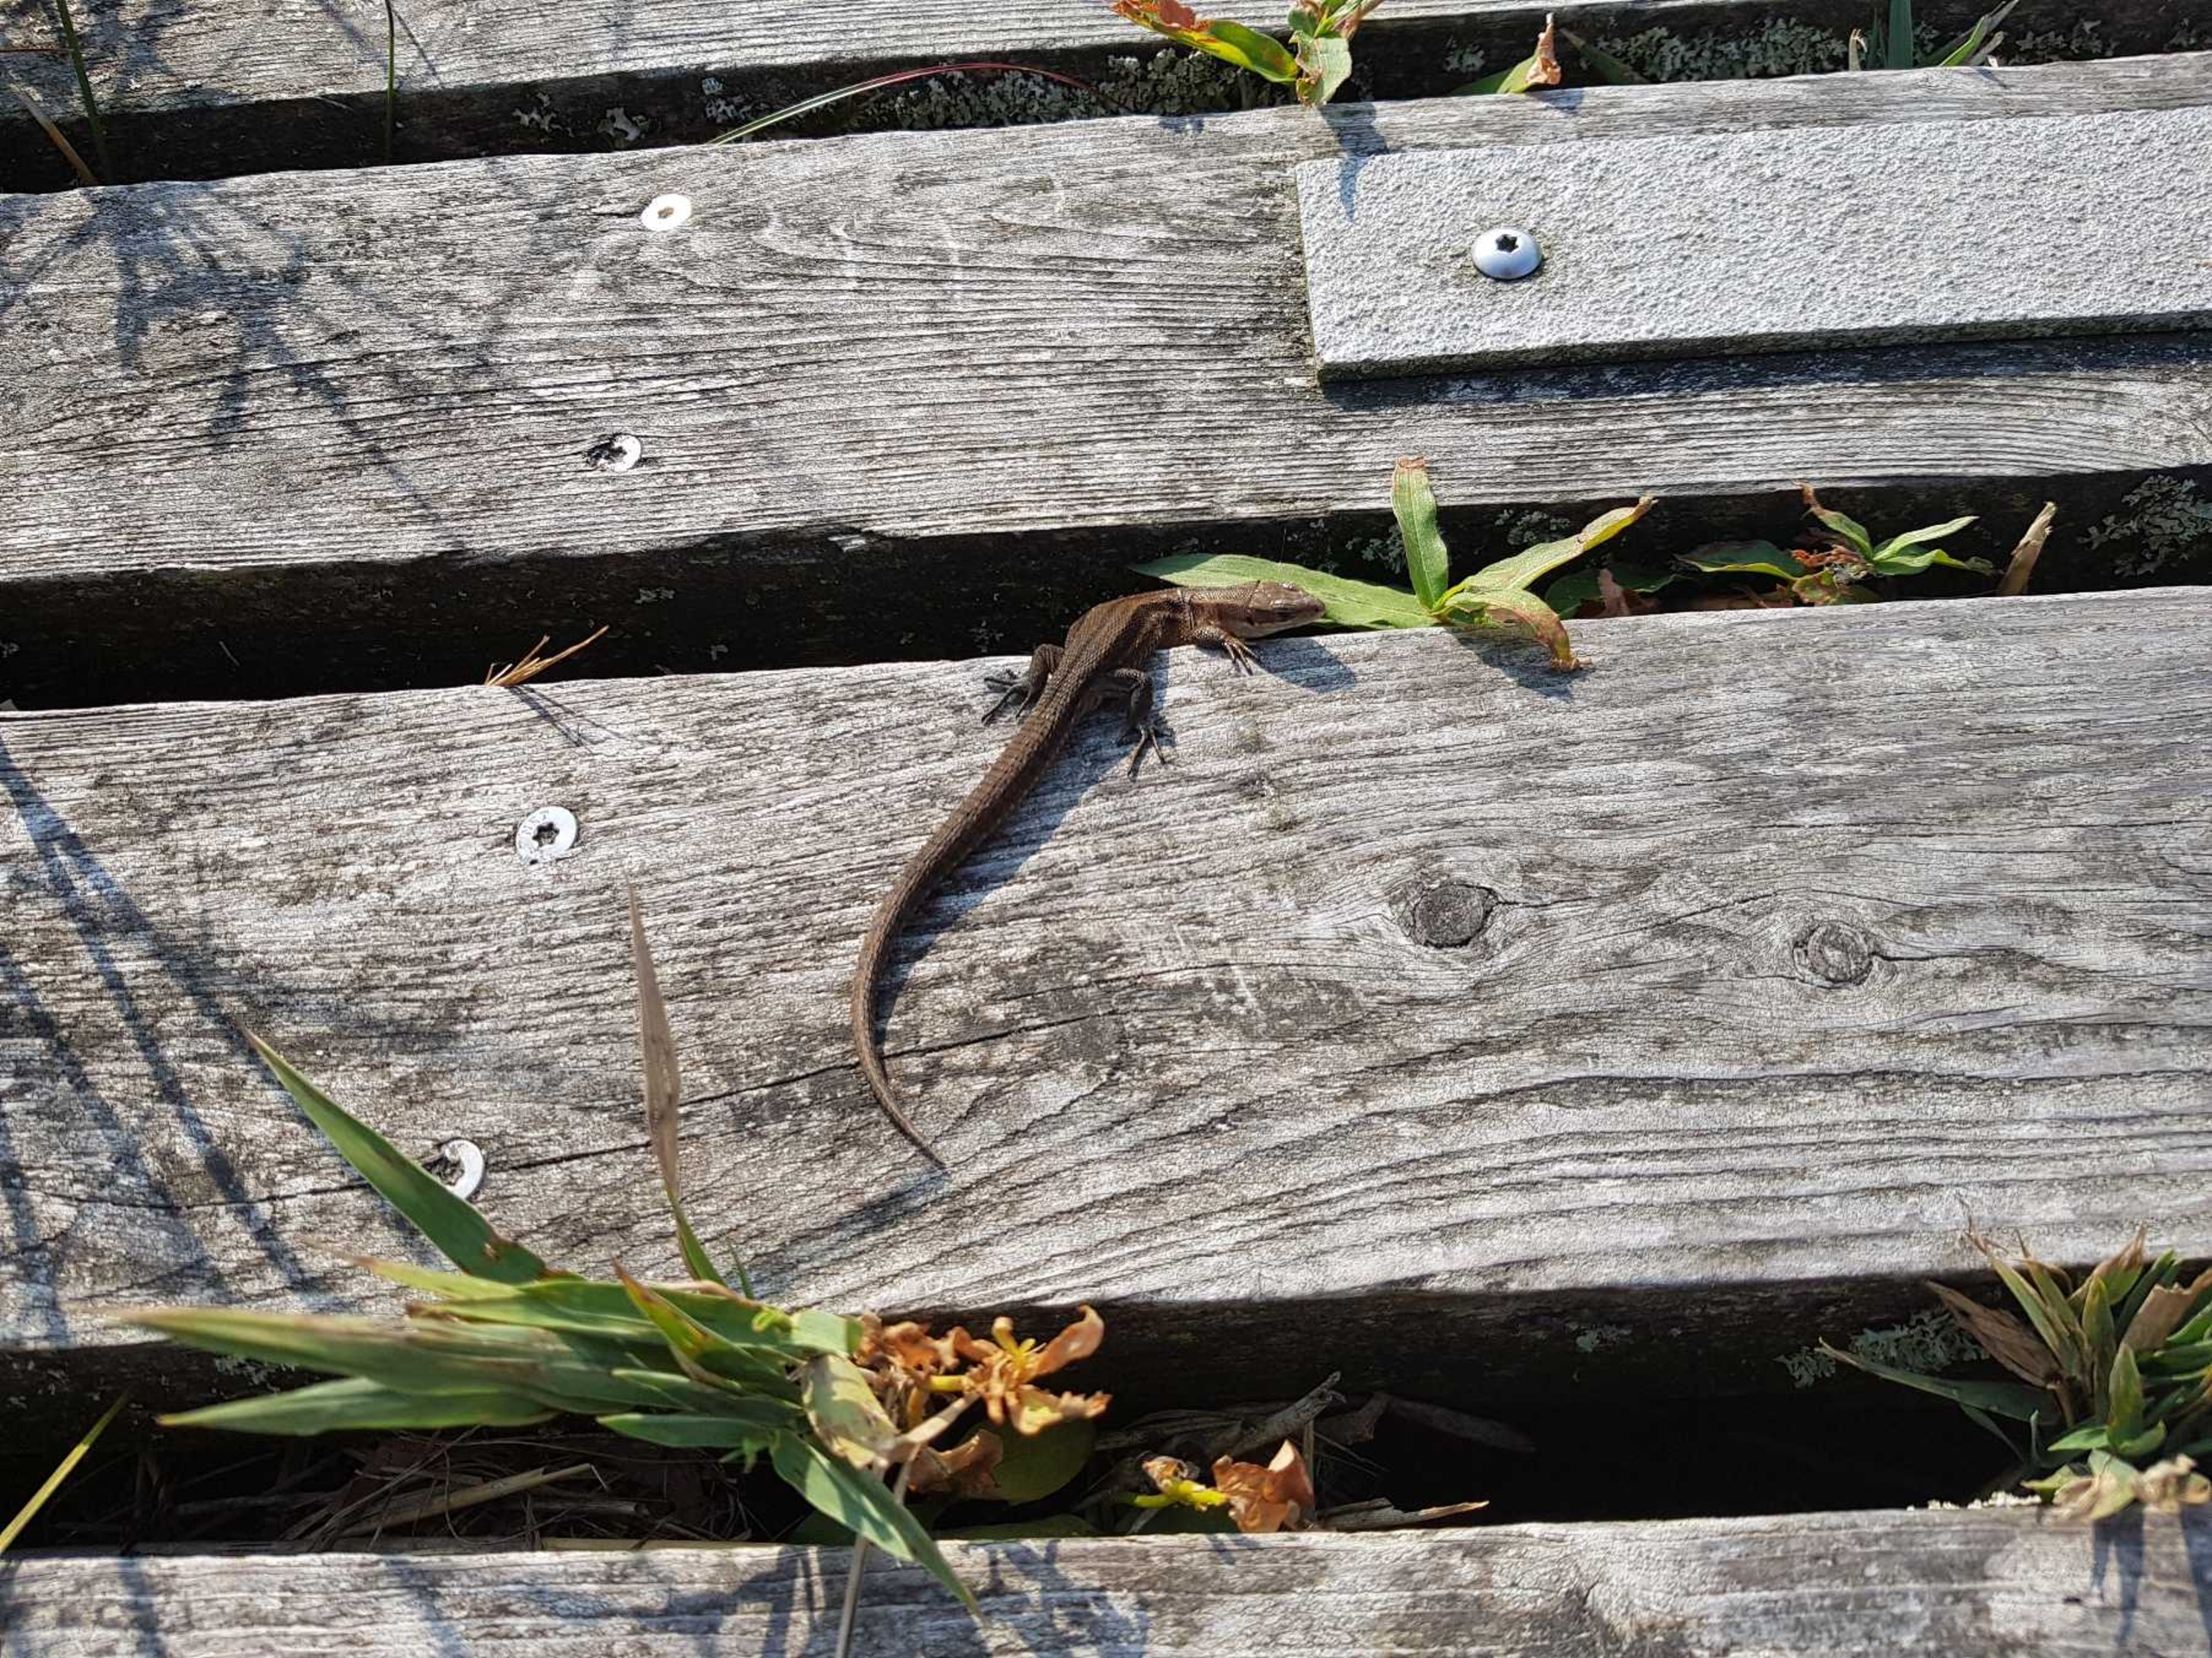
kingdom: Animalia
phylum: Chordata
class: Squamata
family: Lacertidae
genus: Zootoca
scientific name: Zootoca vivipara
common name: Skovfirben
